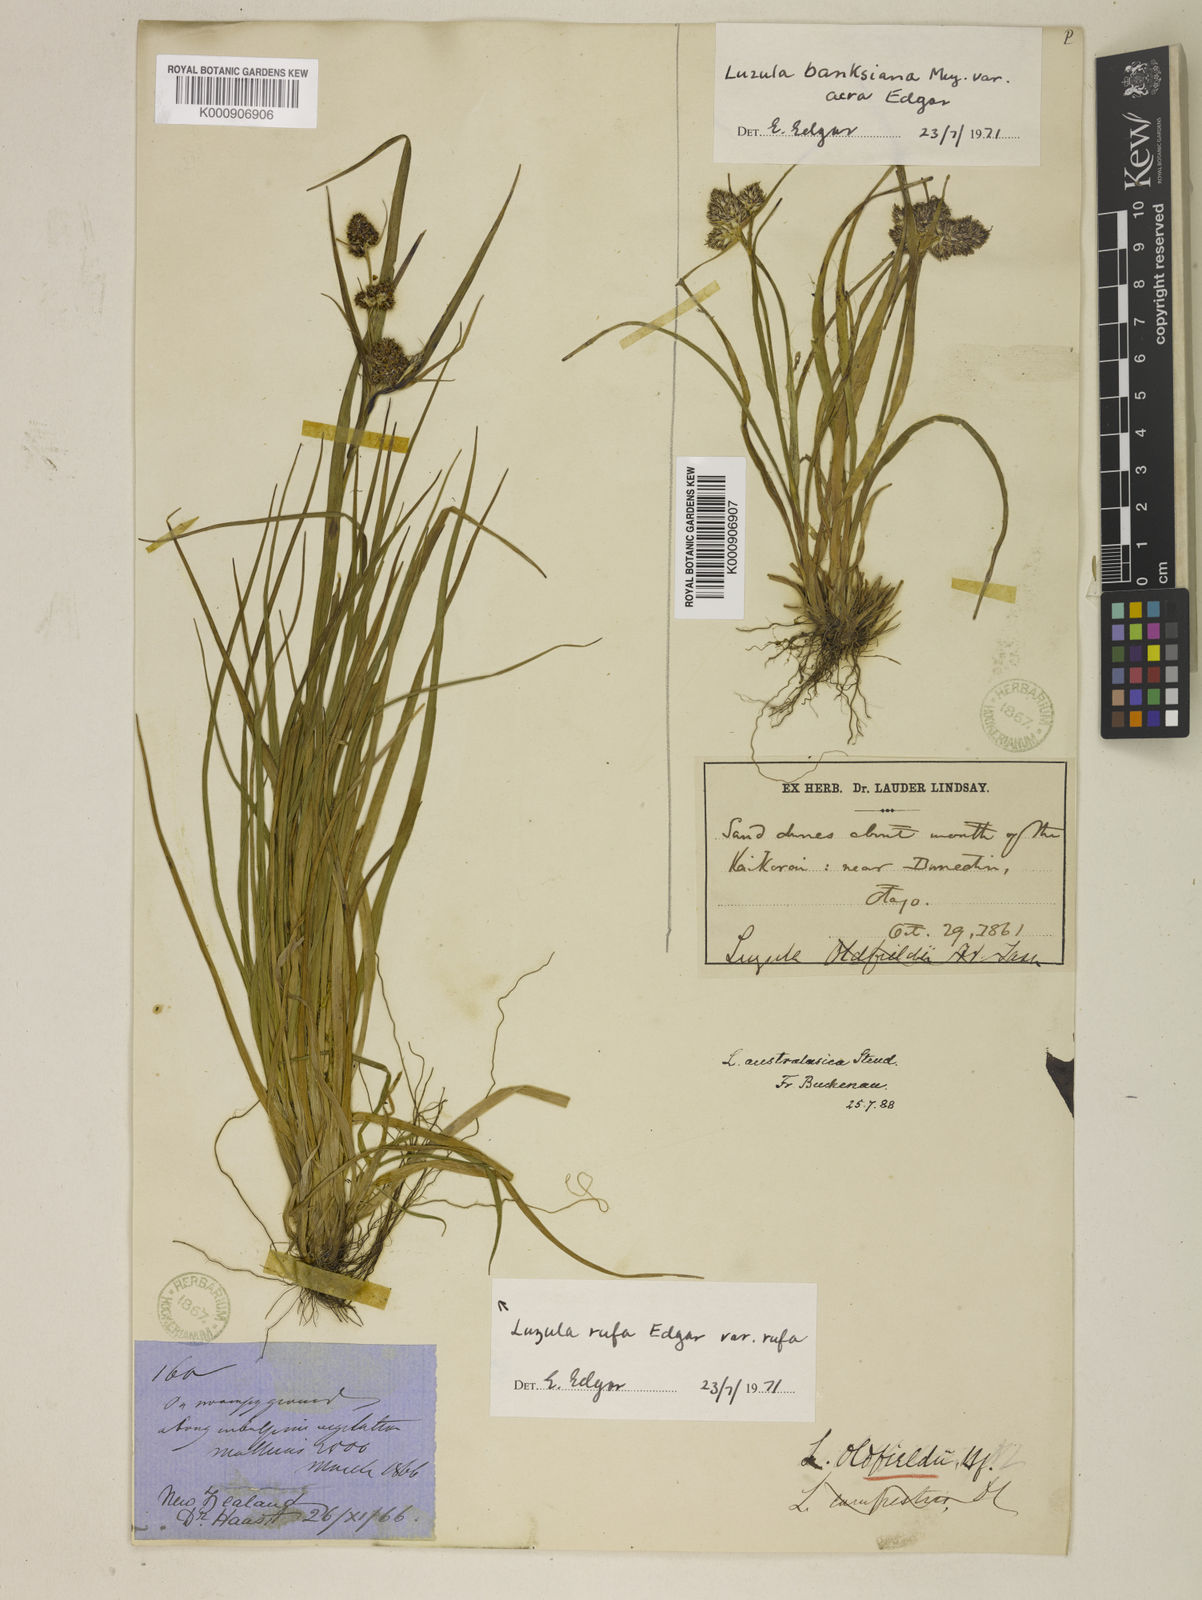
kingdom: Plantae
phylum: Tracheophyta
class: Liliopsida
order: Poales
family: Juncaceae
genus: Luzula
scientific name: Luzula australasica
